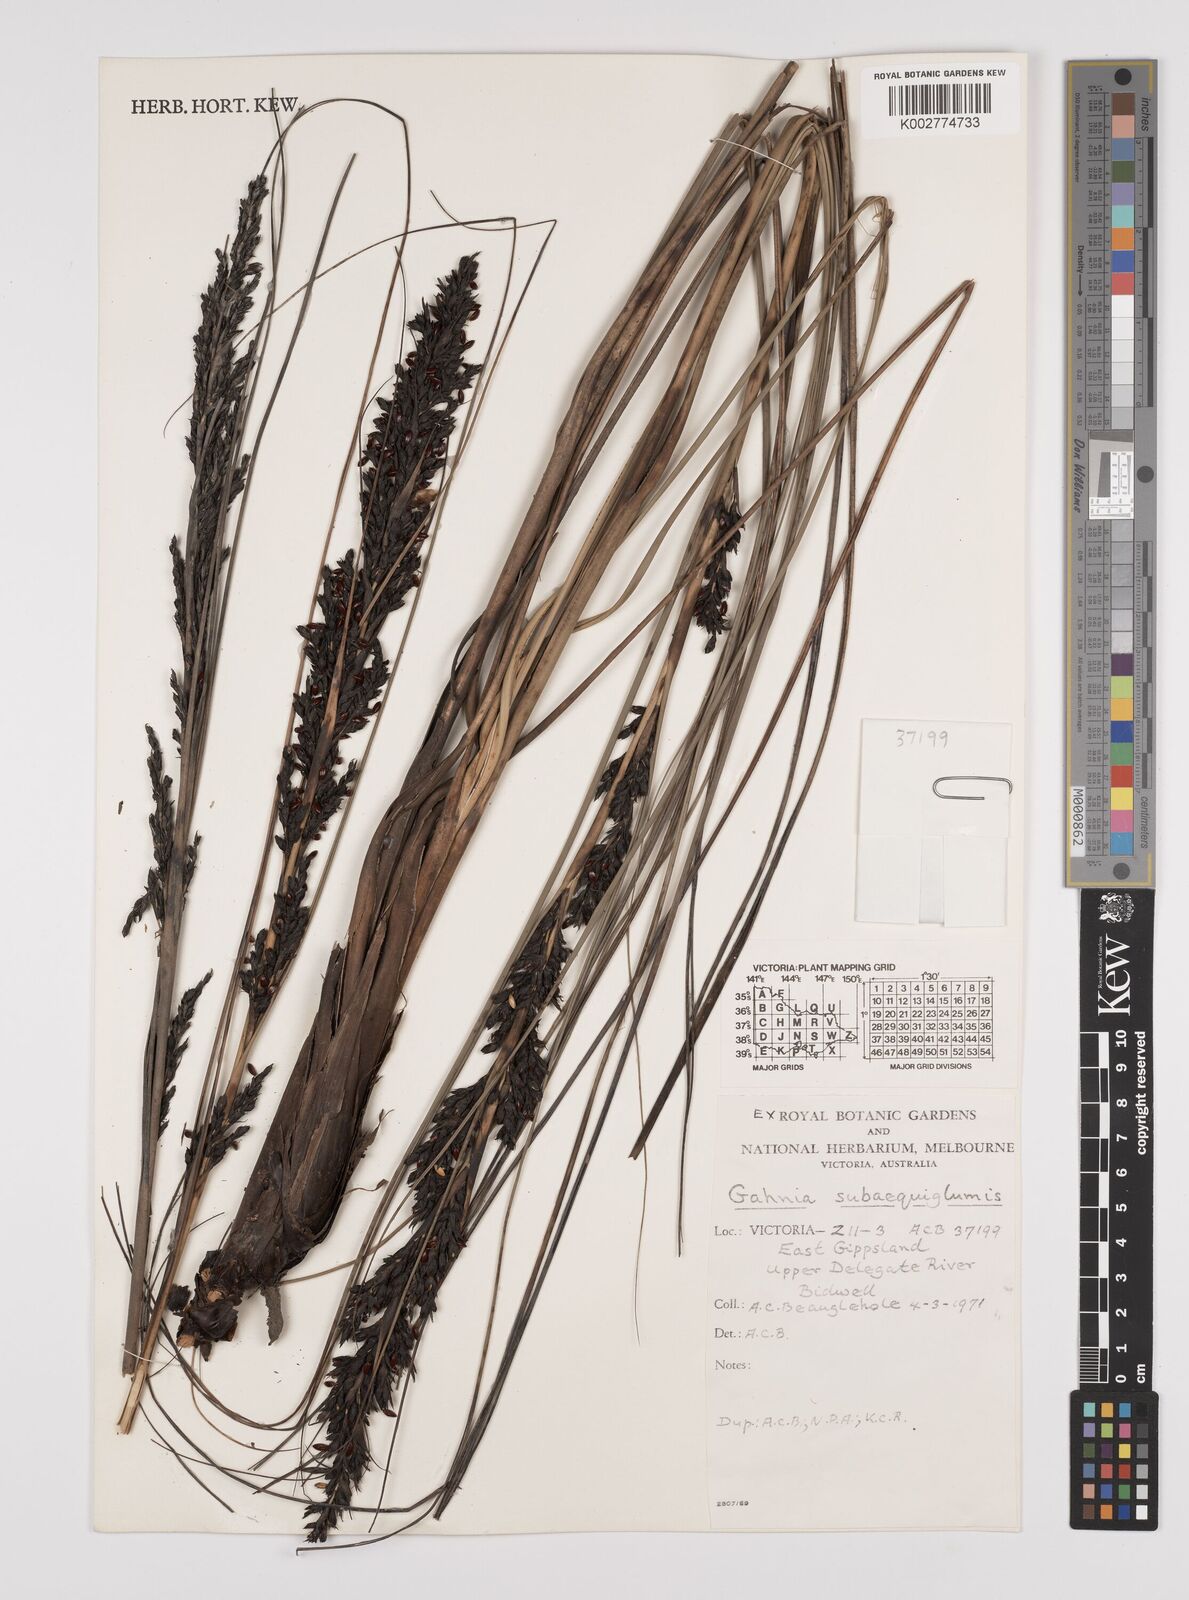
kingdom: Plantae
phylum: Tracheophyta
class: Liliopsida
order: Poales
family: Cyperaceae
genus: Gahnia
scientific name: Gahnia subaequiglumis
